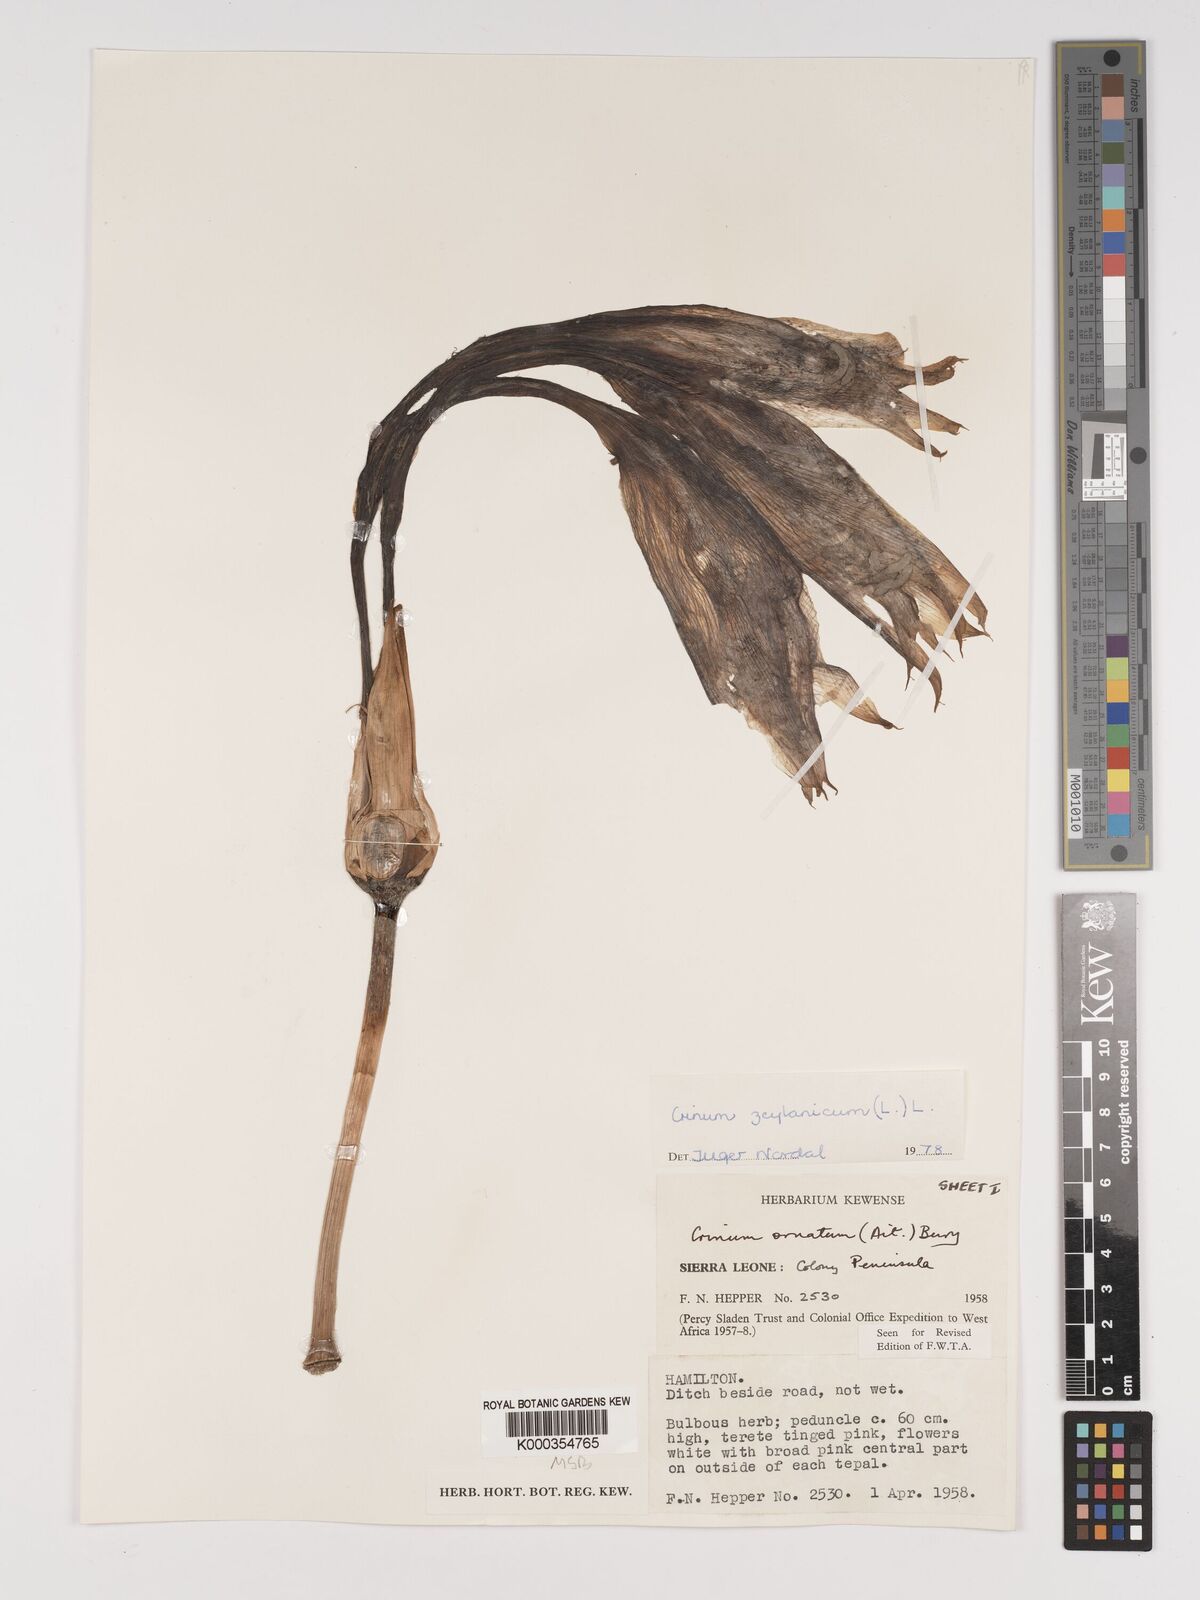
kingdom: Plantae
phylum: Tracheophyta
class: Liliopsida
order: Asparagales
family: Amaryllidaceae
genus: Crinum
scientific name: Crinum zeylanicum
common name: Ceylon swamplily
